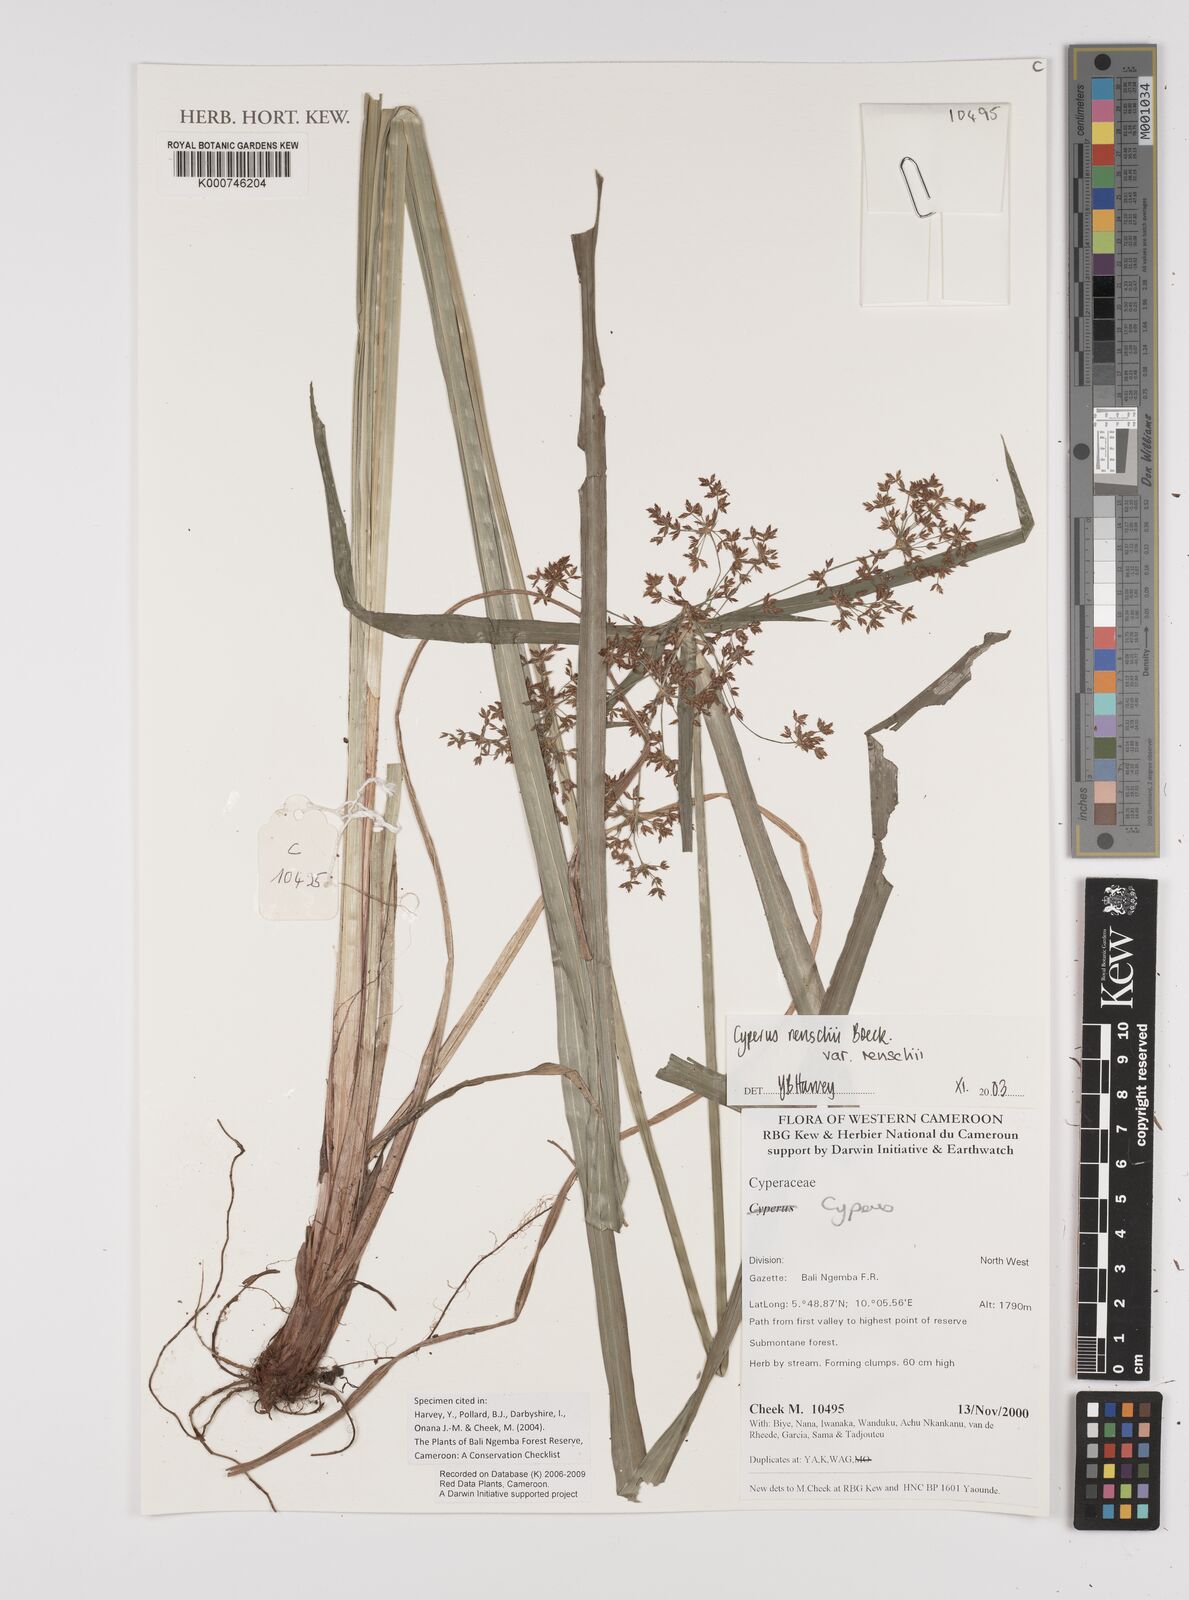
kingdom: Plantae
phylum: Tracheophyta
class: Liliopsida
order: Poales
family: Cyperaceae
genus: Cyperus
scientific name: Cyperus renschii
